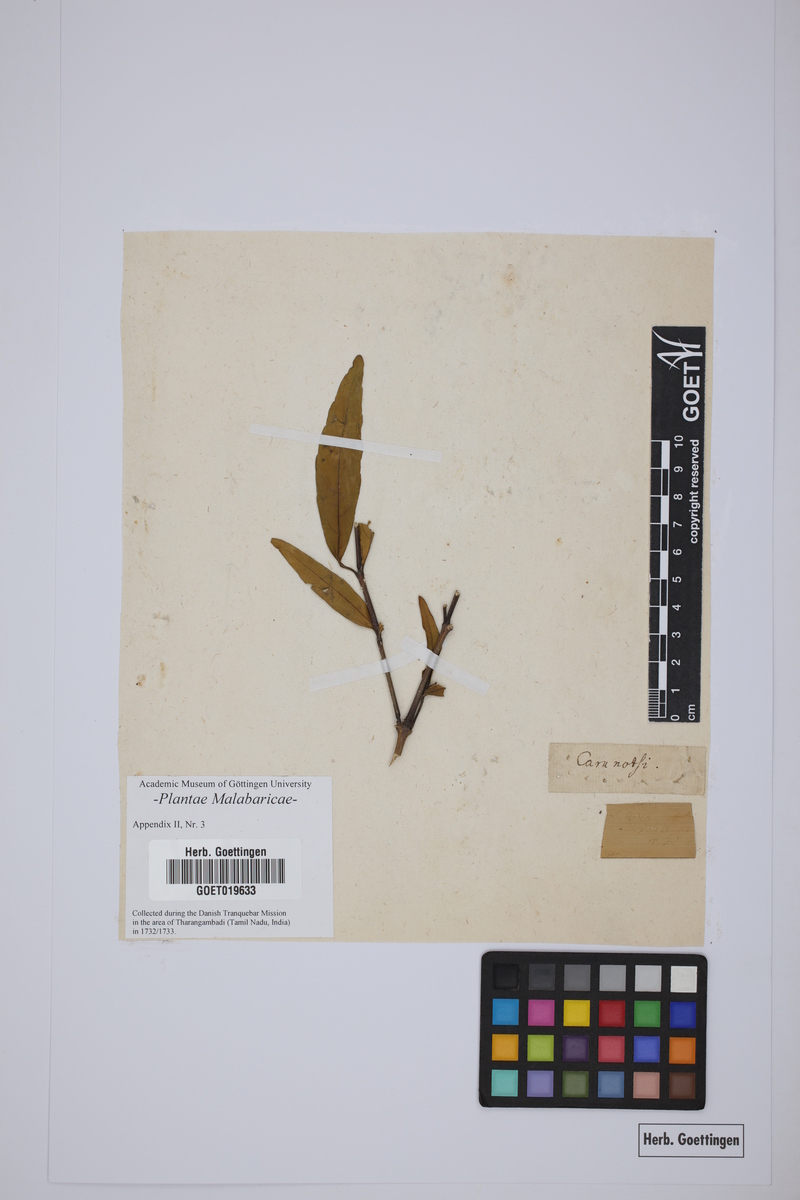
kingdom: Plantae
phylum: Tracheophyta
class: Magnoliopsida
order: Lamiales
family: Acanthaceae
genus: Justicia
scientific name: Justicia gendarussa
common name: Warer willow
